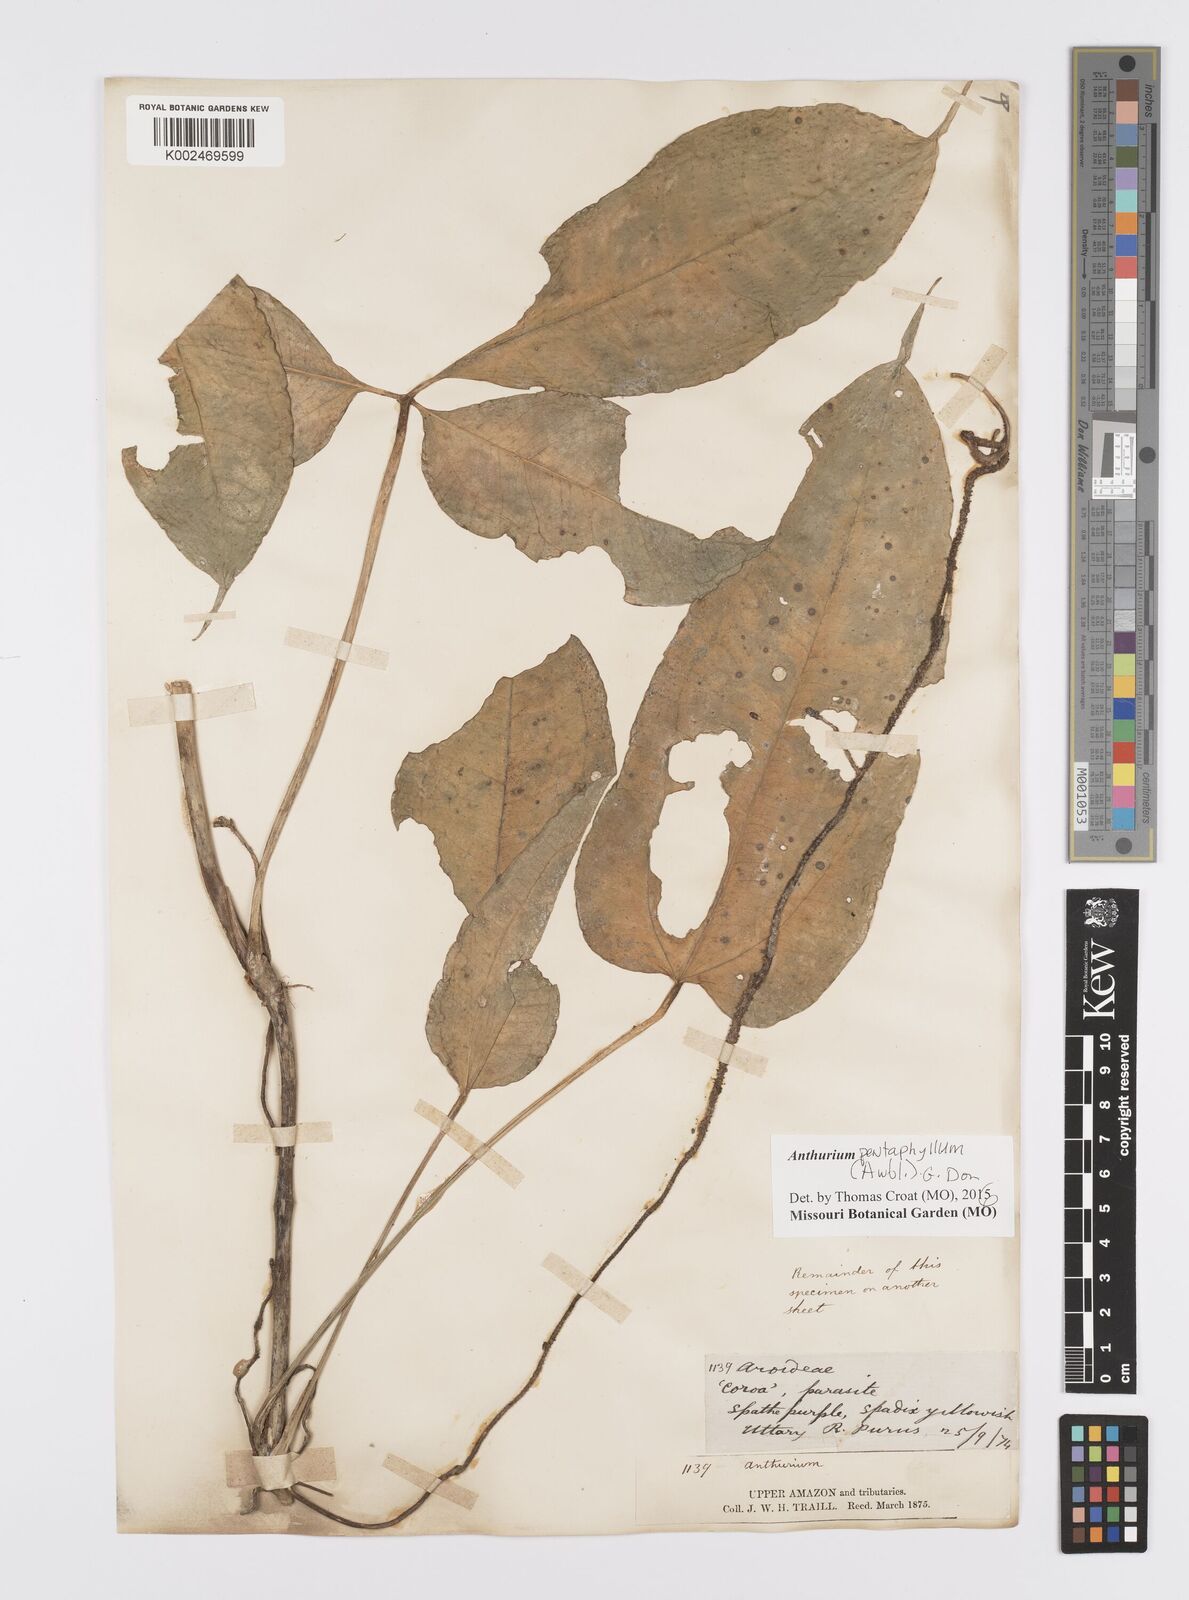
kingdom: Plantae
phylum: Tracheophyta
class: Liliopsida
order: Alismatales
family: Araceae
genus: Anthurium
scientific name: Anthurium pentaphyllum
